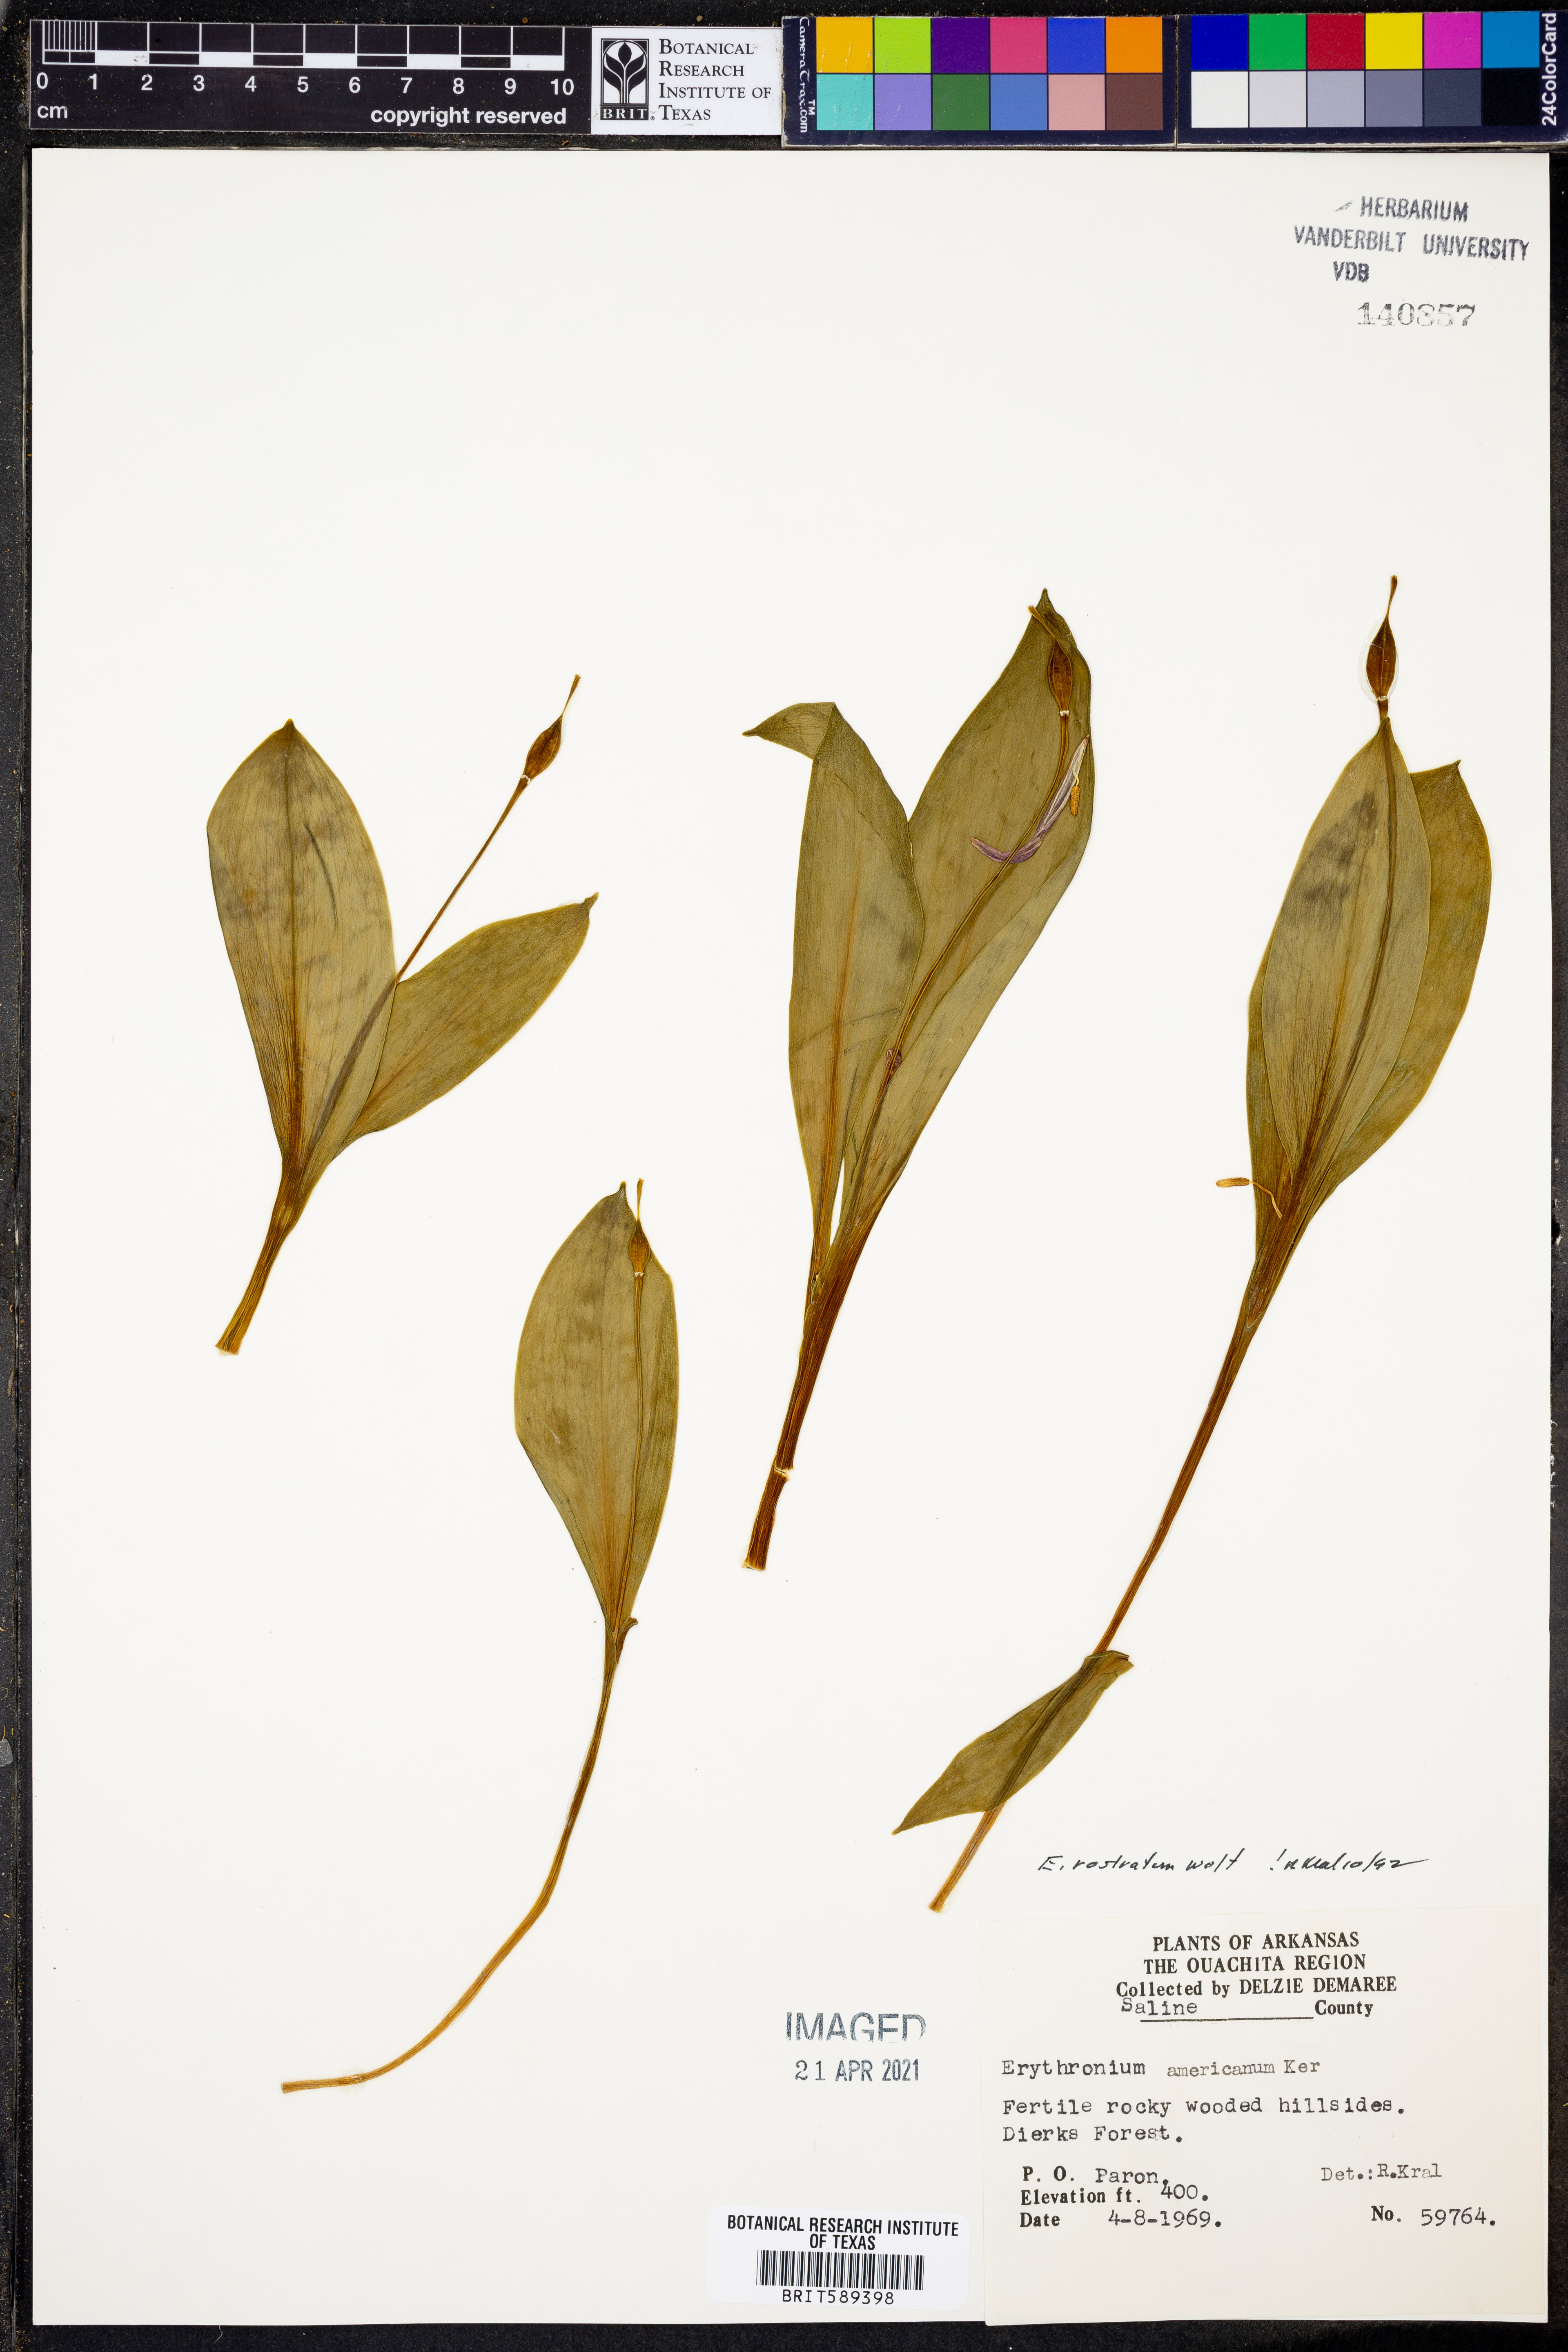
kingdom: Plantae
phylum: Tracheophyta
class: Liliopsida
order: Liliales
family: Liliaceae
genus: Erythronium
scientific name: Erythronium rostratum
